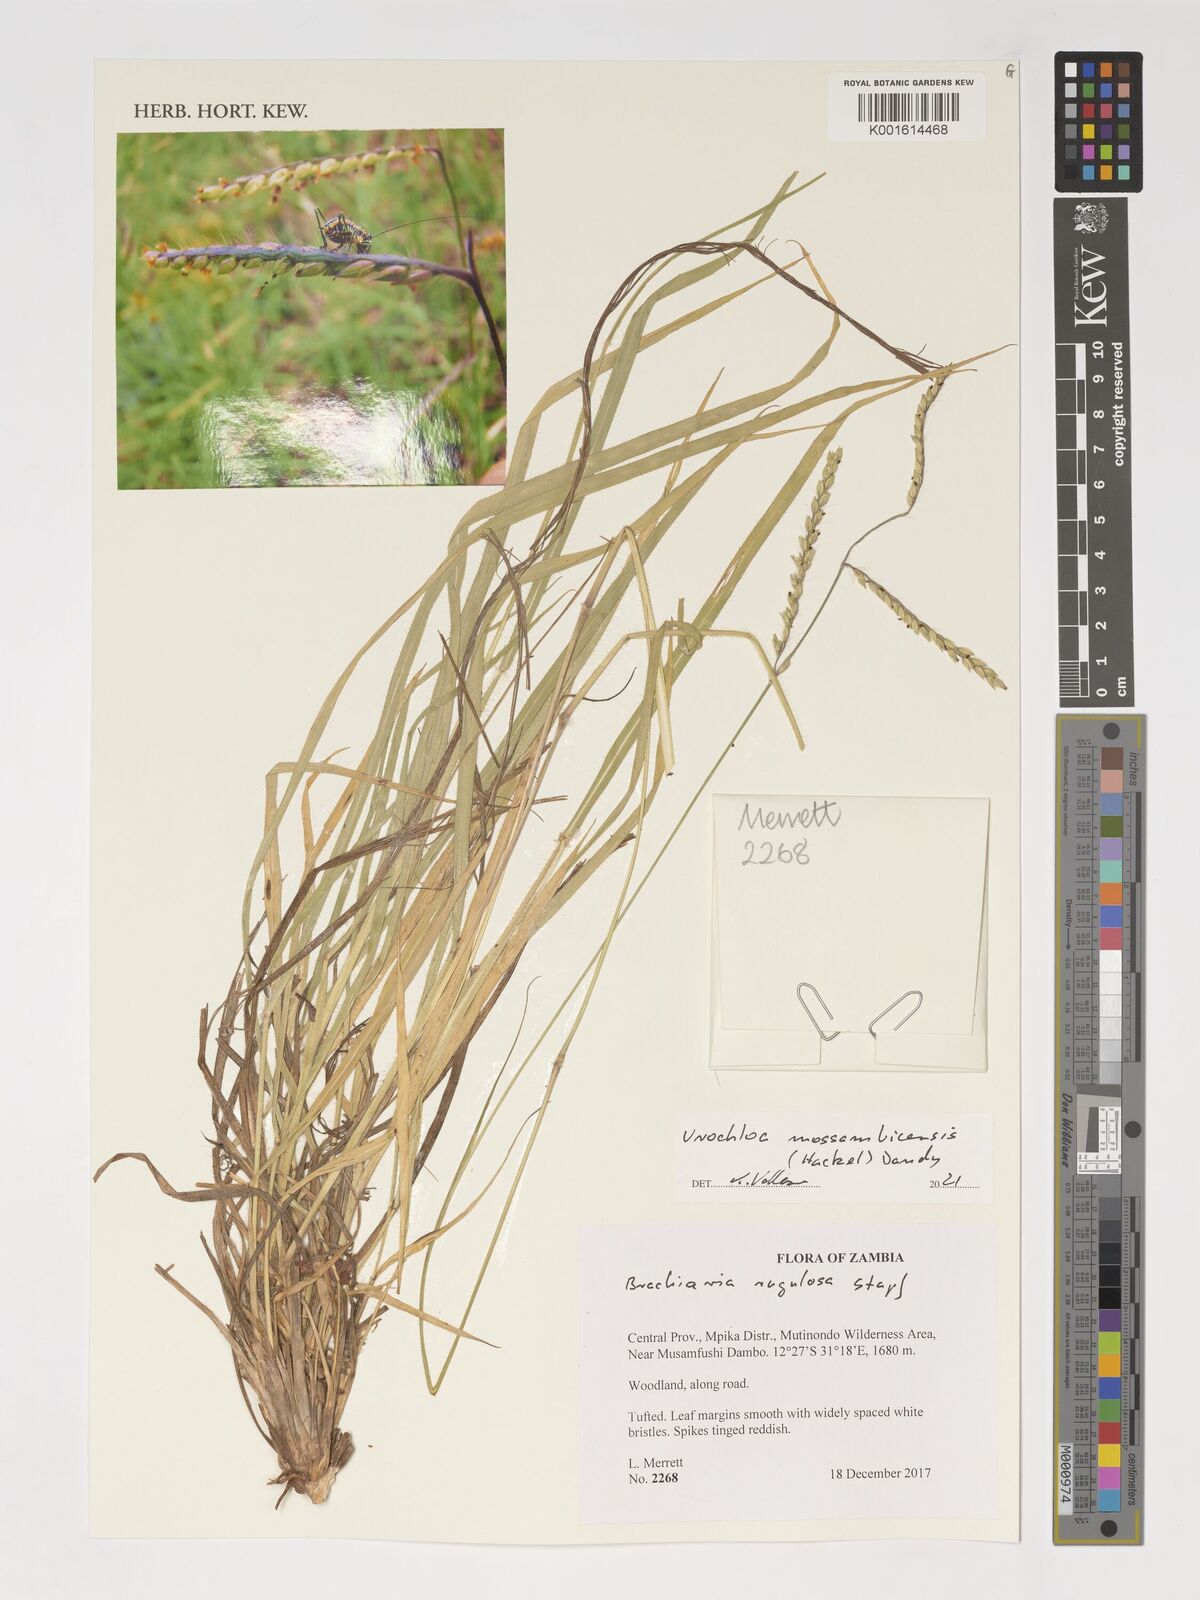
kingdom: Plantae
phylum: Tracheophyta
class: Liliopsida
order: Poales
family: Poaceae
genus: Urochloa
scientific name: Urochloa trichopus
